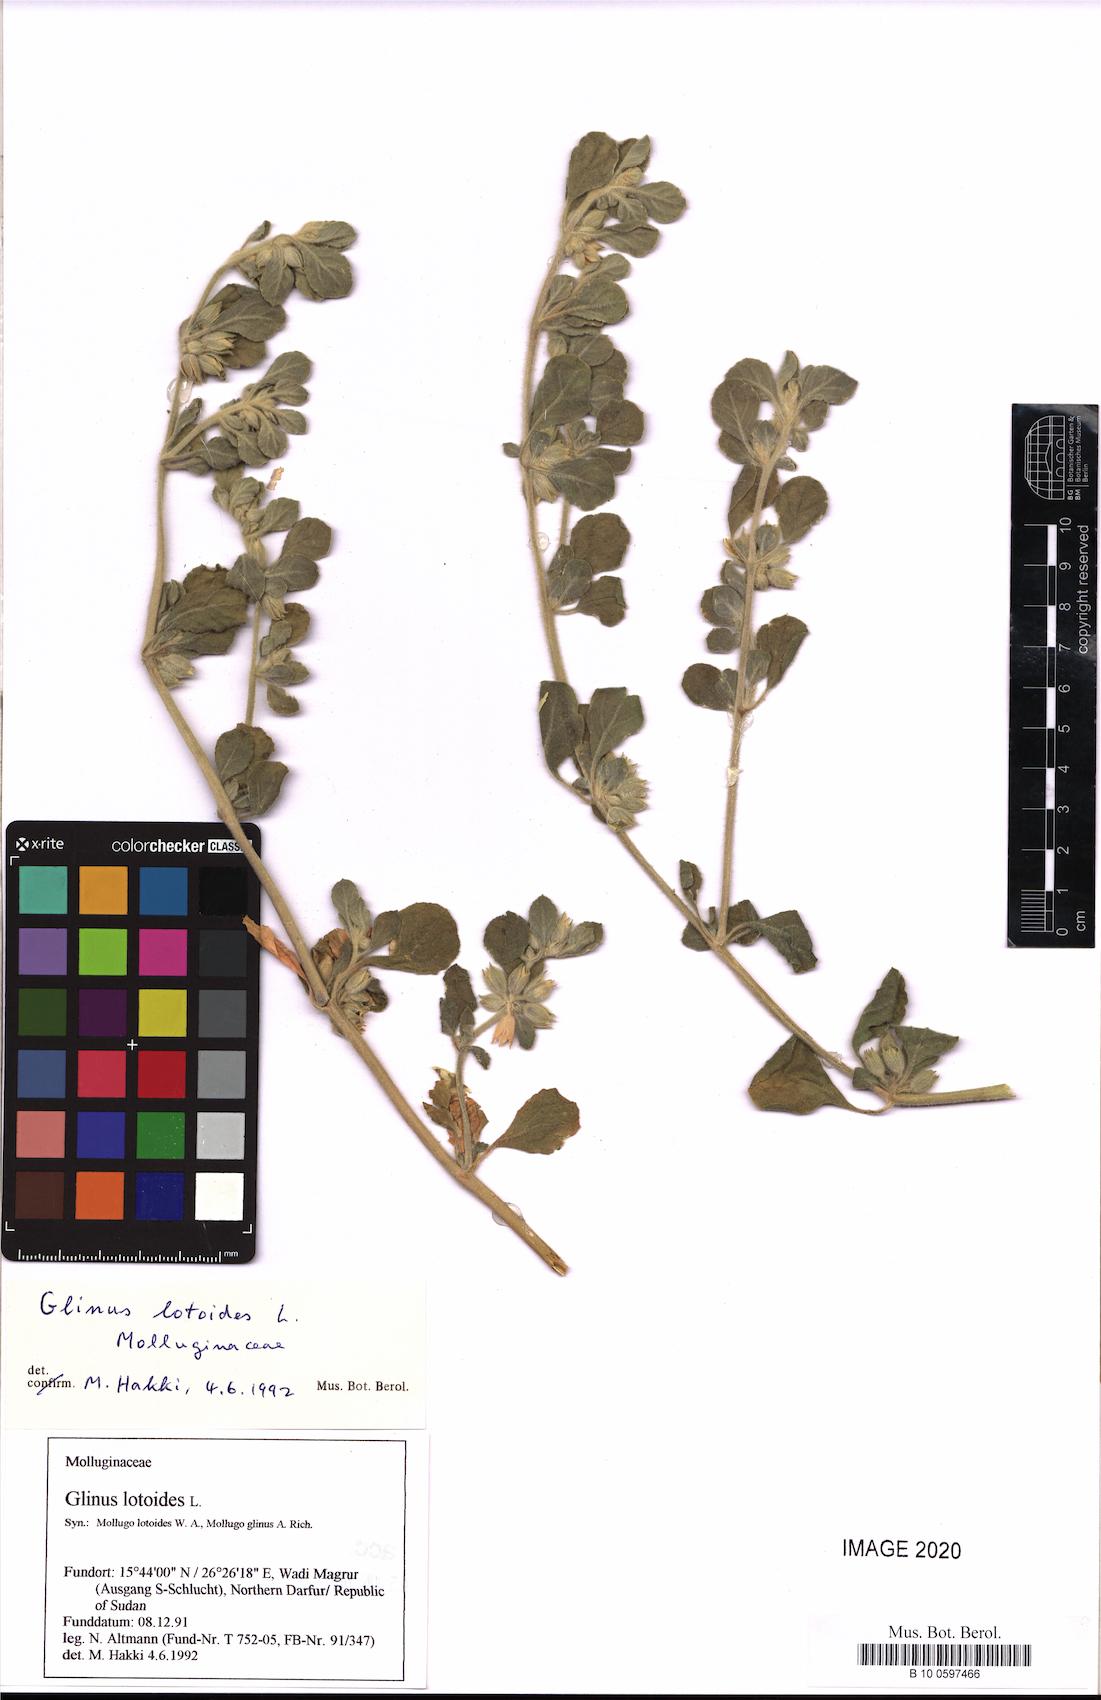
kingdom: Plantae
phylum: Tracheophyta
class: Magnoliopsida
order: Caryophyllales
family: Molluginaceae
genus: Glinus
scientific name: Glinus lotoides
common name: Lotus sweetjuice
